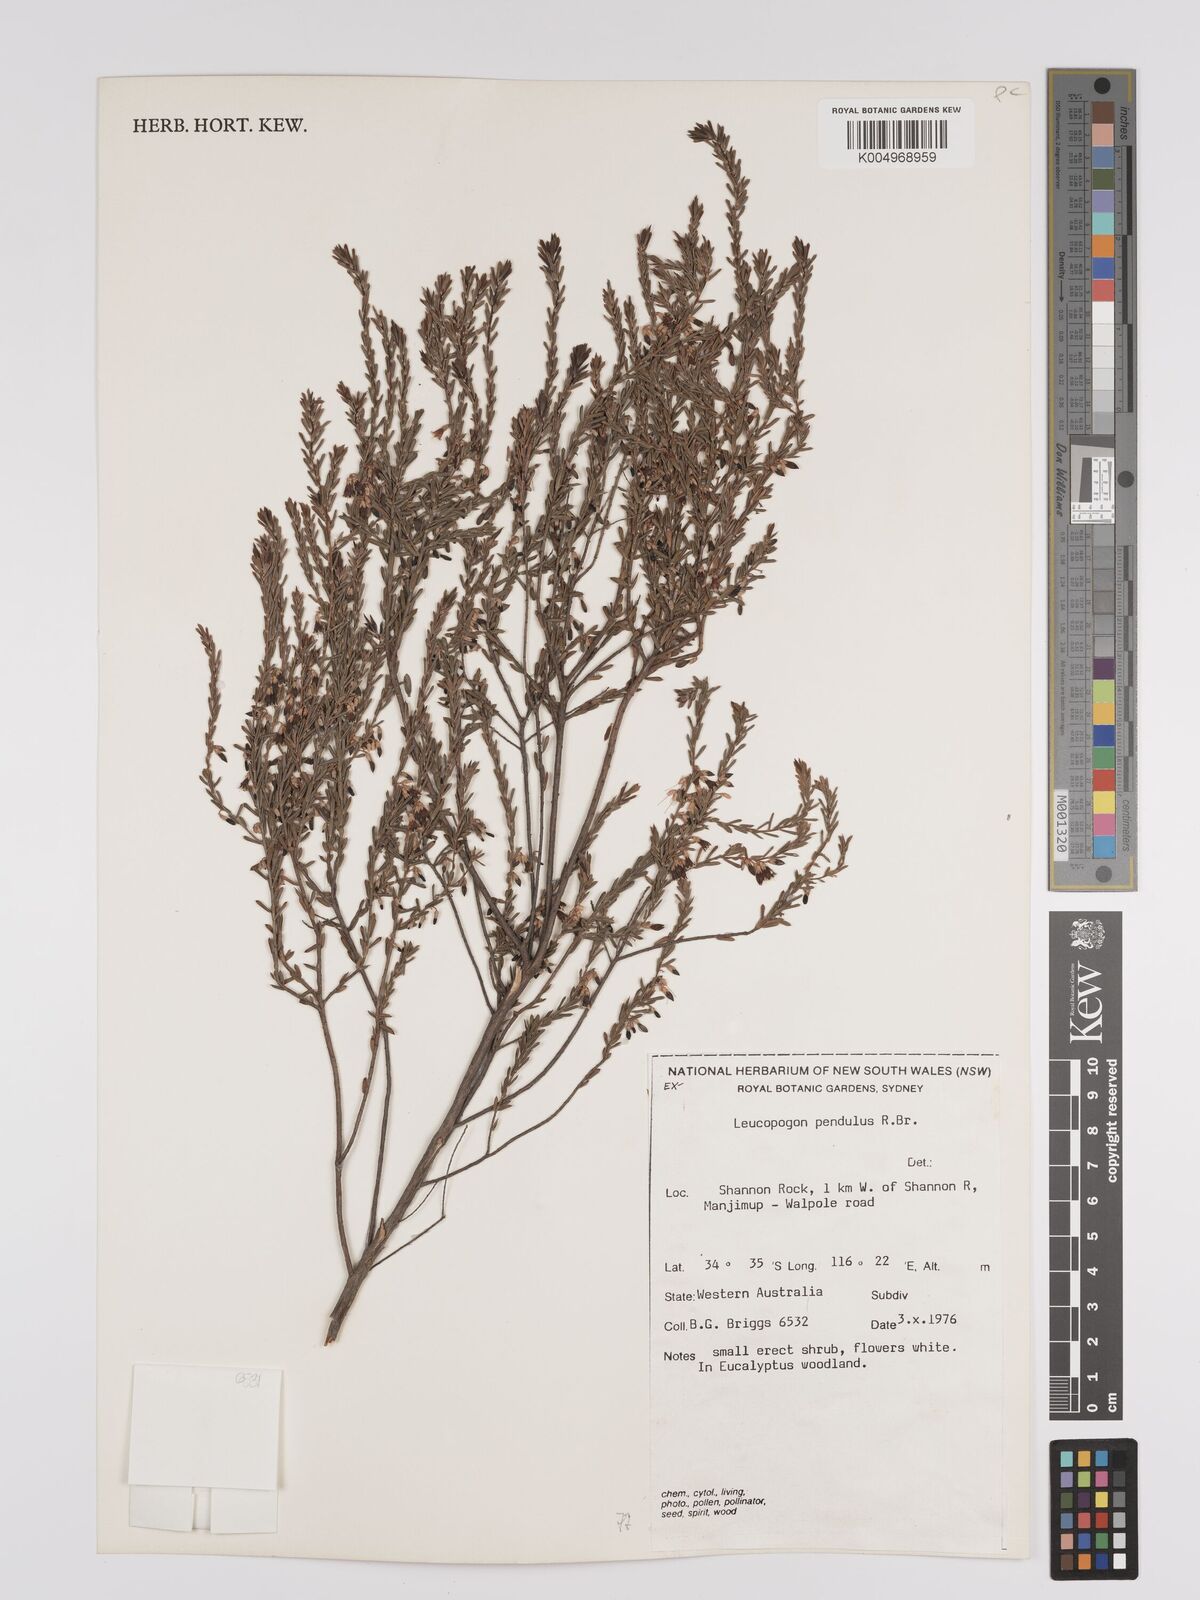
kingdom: Plantae
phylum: Tracheophyta
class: Magnoliopsida
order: Ericales
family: Ericaceae
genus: Styphelia
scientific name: Styphelia pendula
